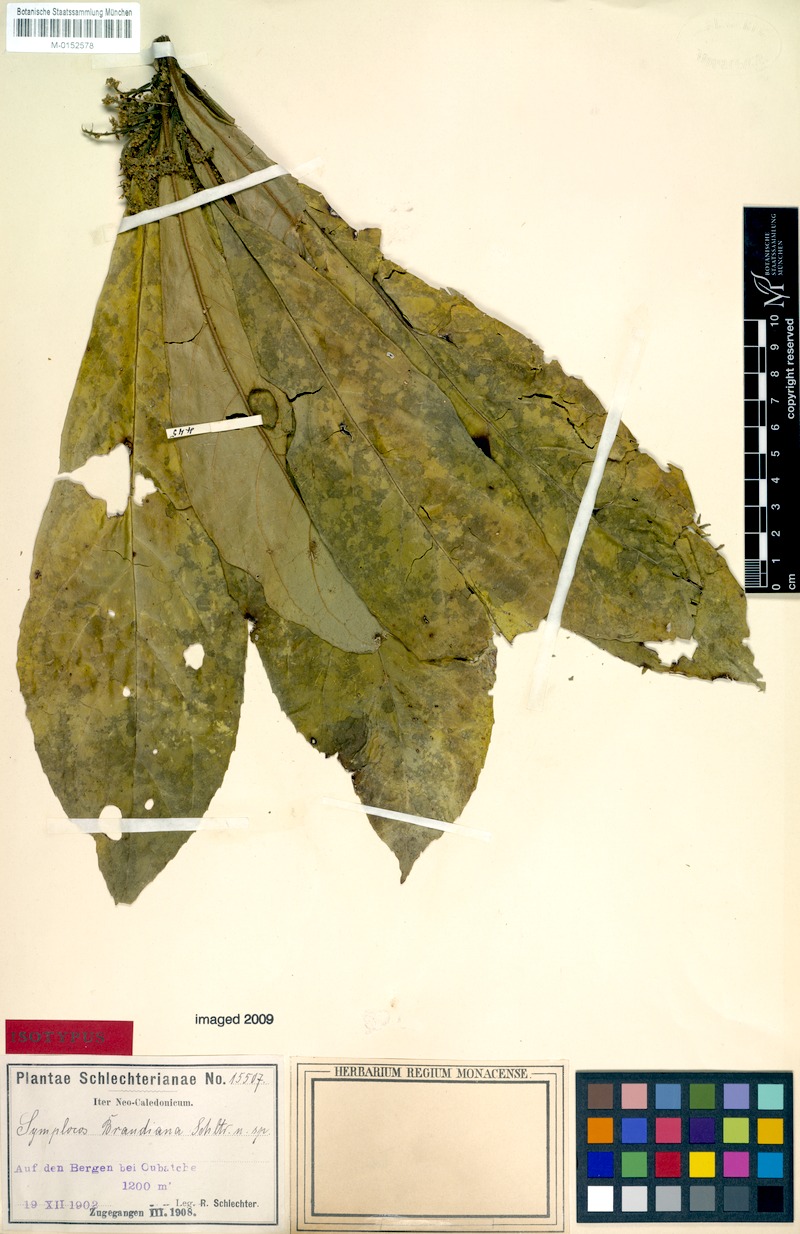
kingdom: Plantae
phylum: Tracheophyta
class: Magnoliopsida
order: Ericales
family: Symplocaceae
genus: Symplocos
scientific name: Symplocos neocaledonica
